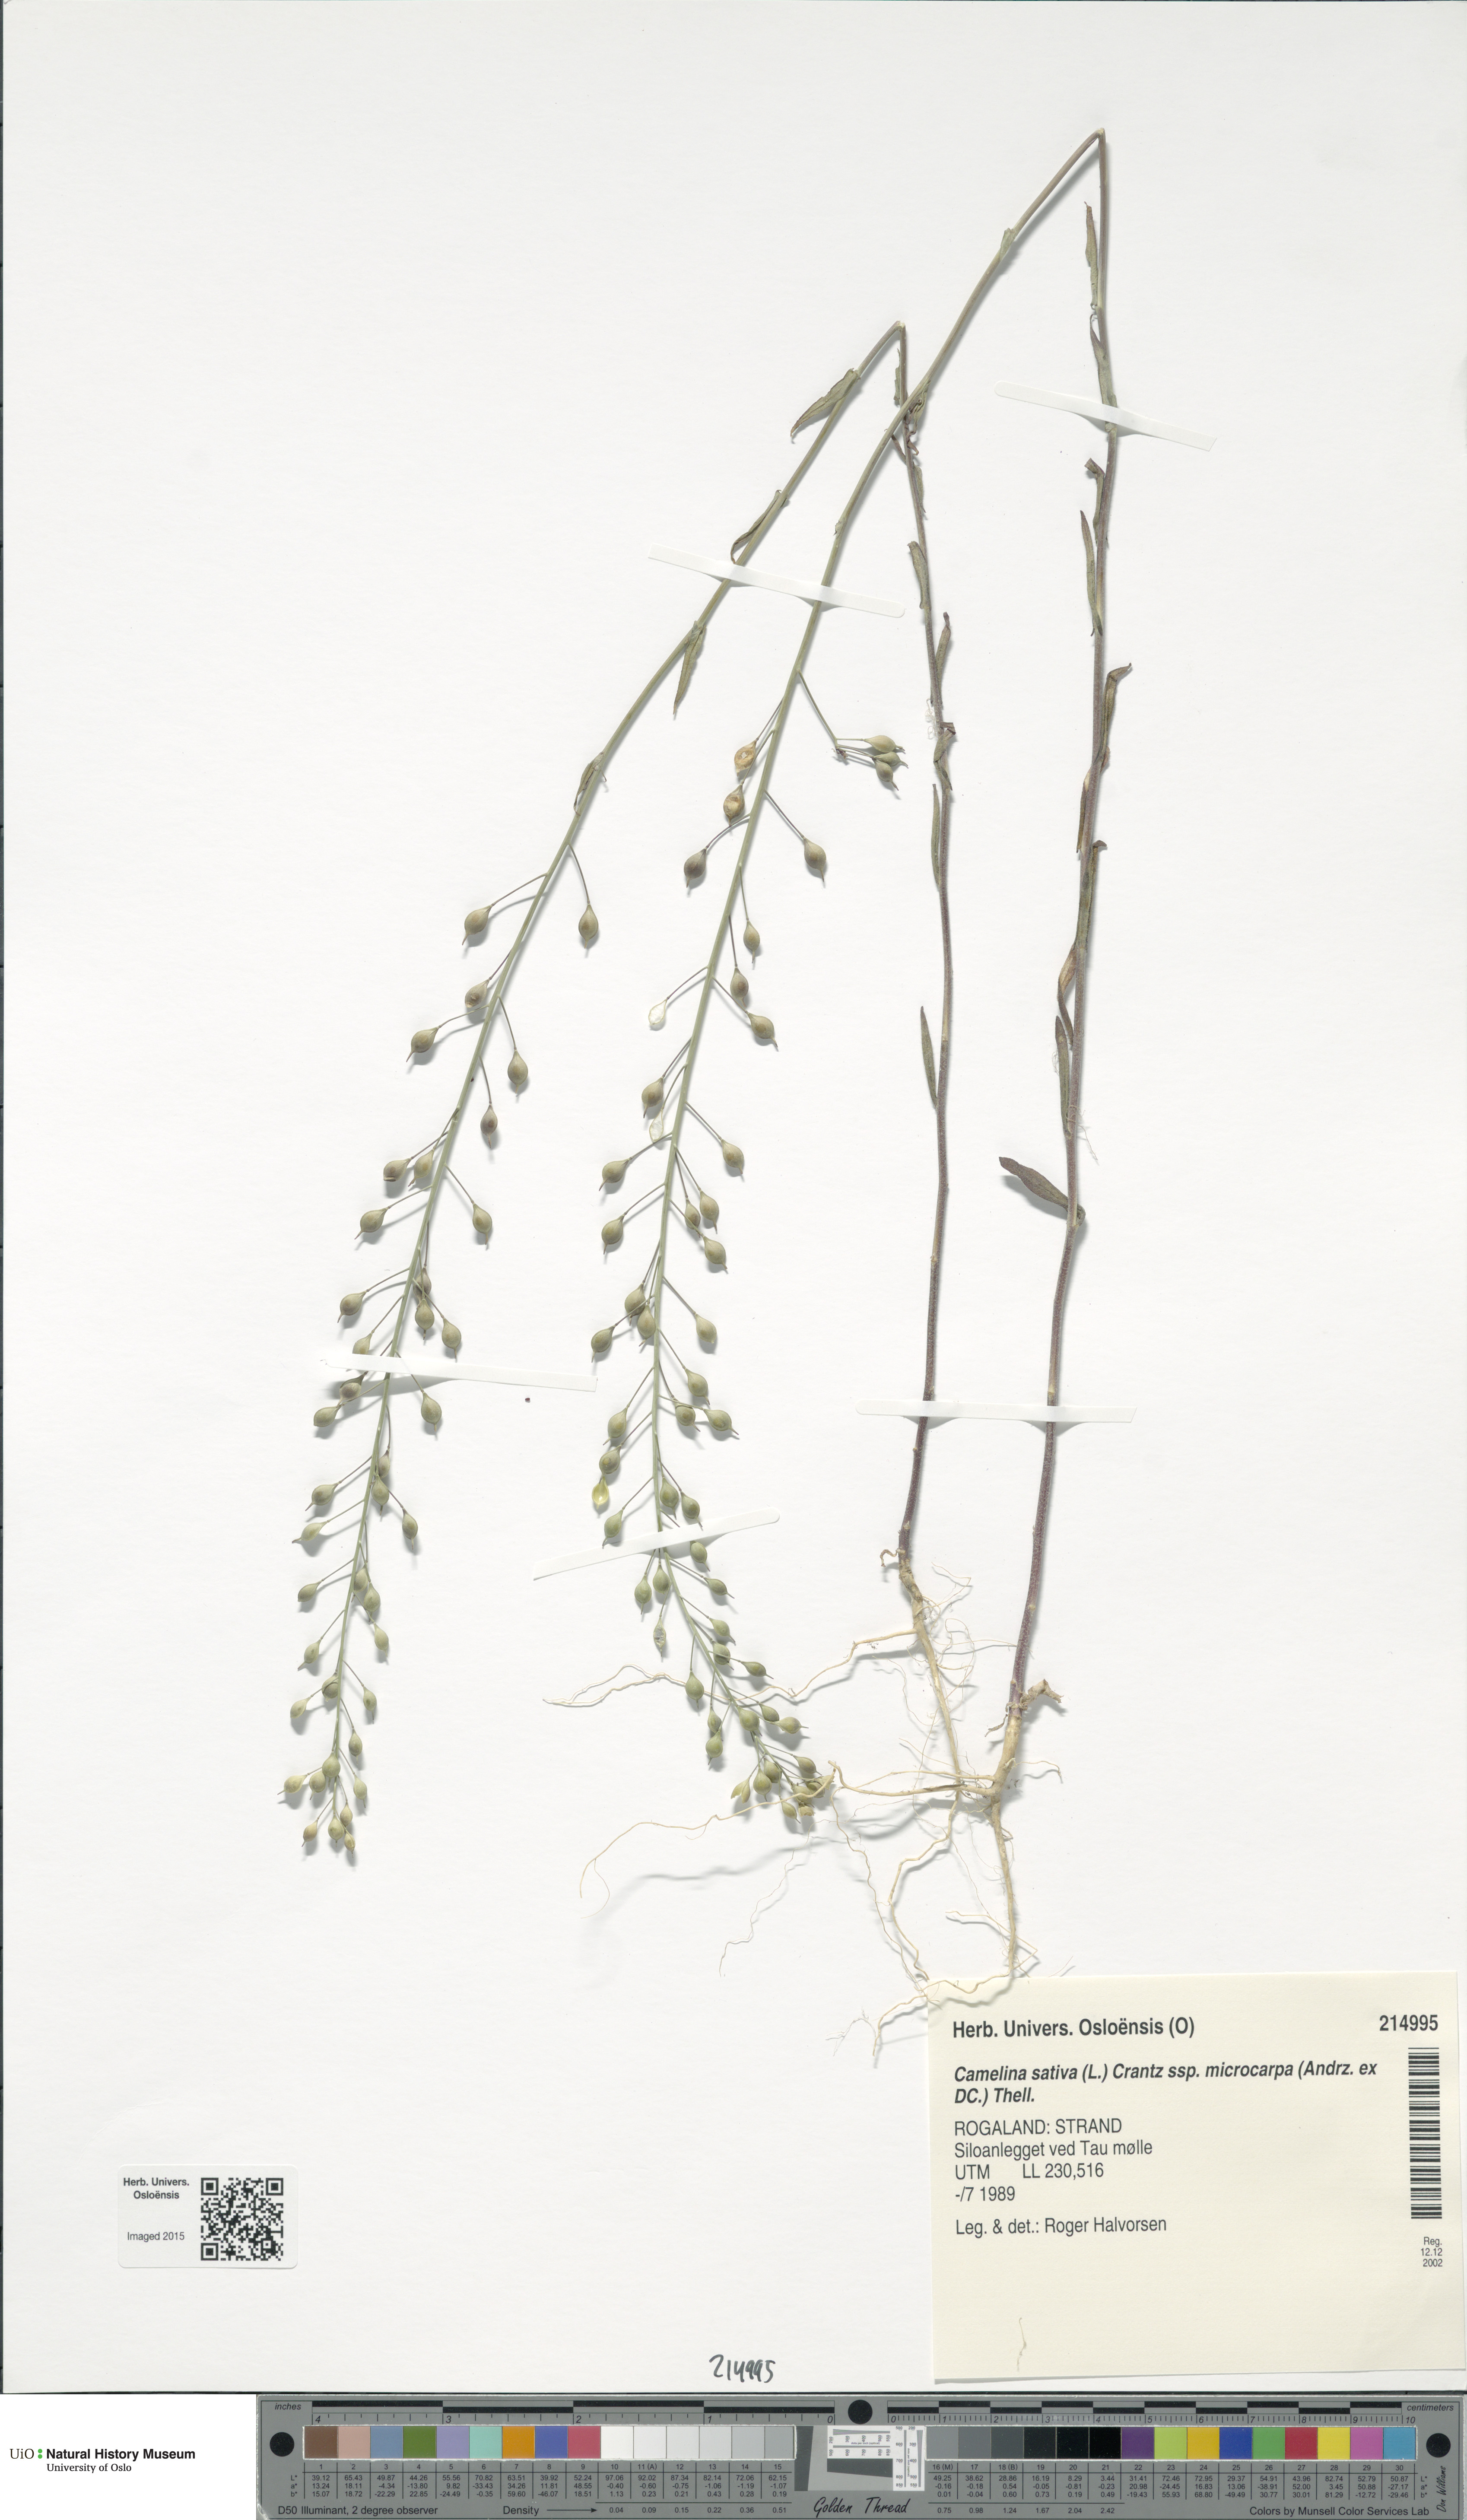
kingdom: Plantae
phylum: Tracheophyta
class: Magnoliopsida
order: Brassicales
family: Brassicaceae
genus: Camelina
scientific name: Camelina sativa
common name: Gold-of-pleasure
